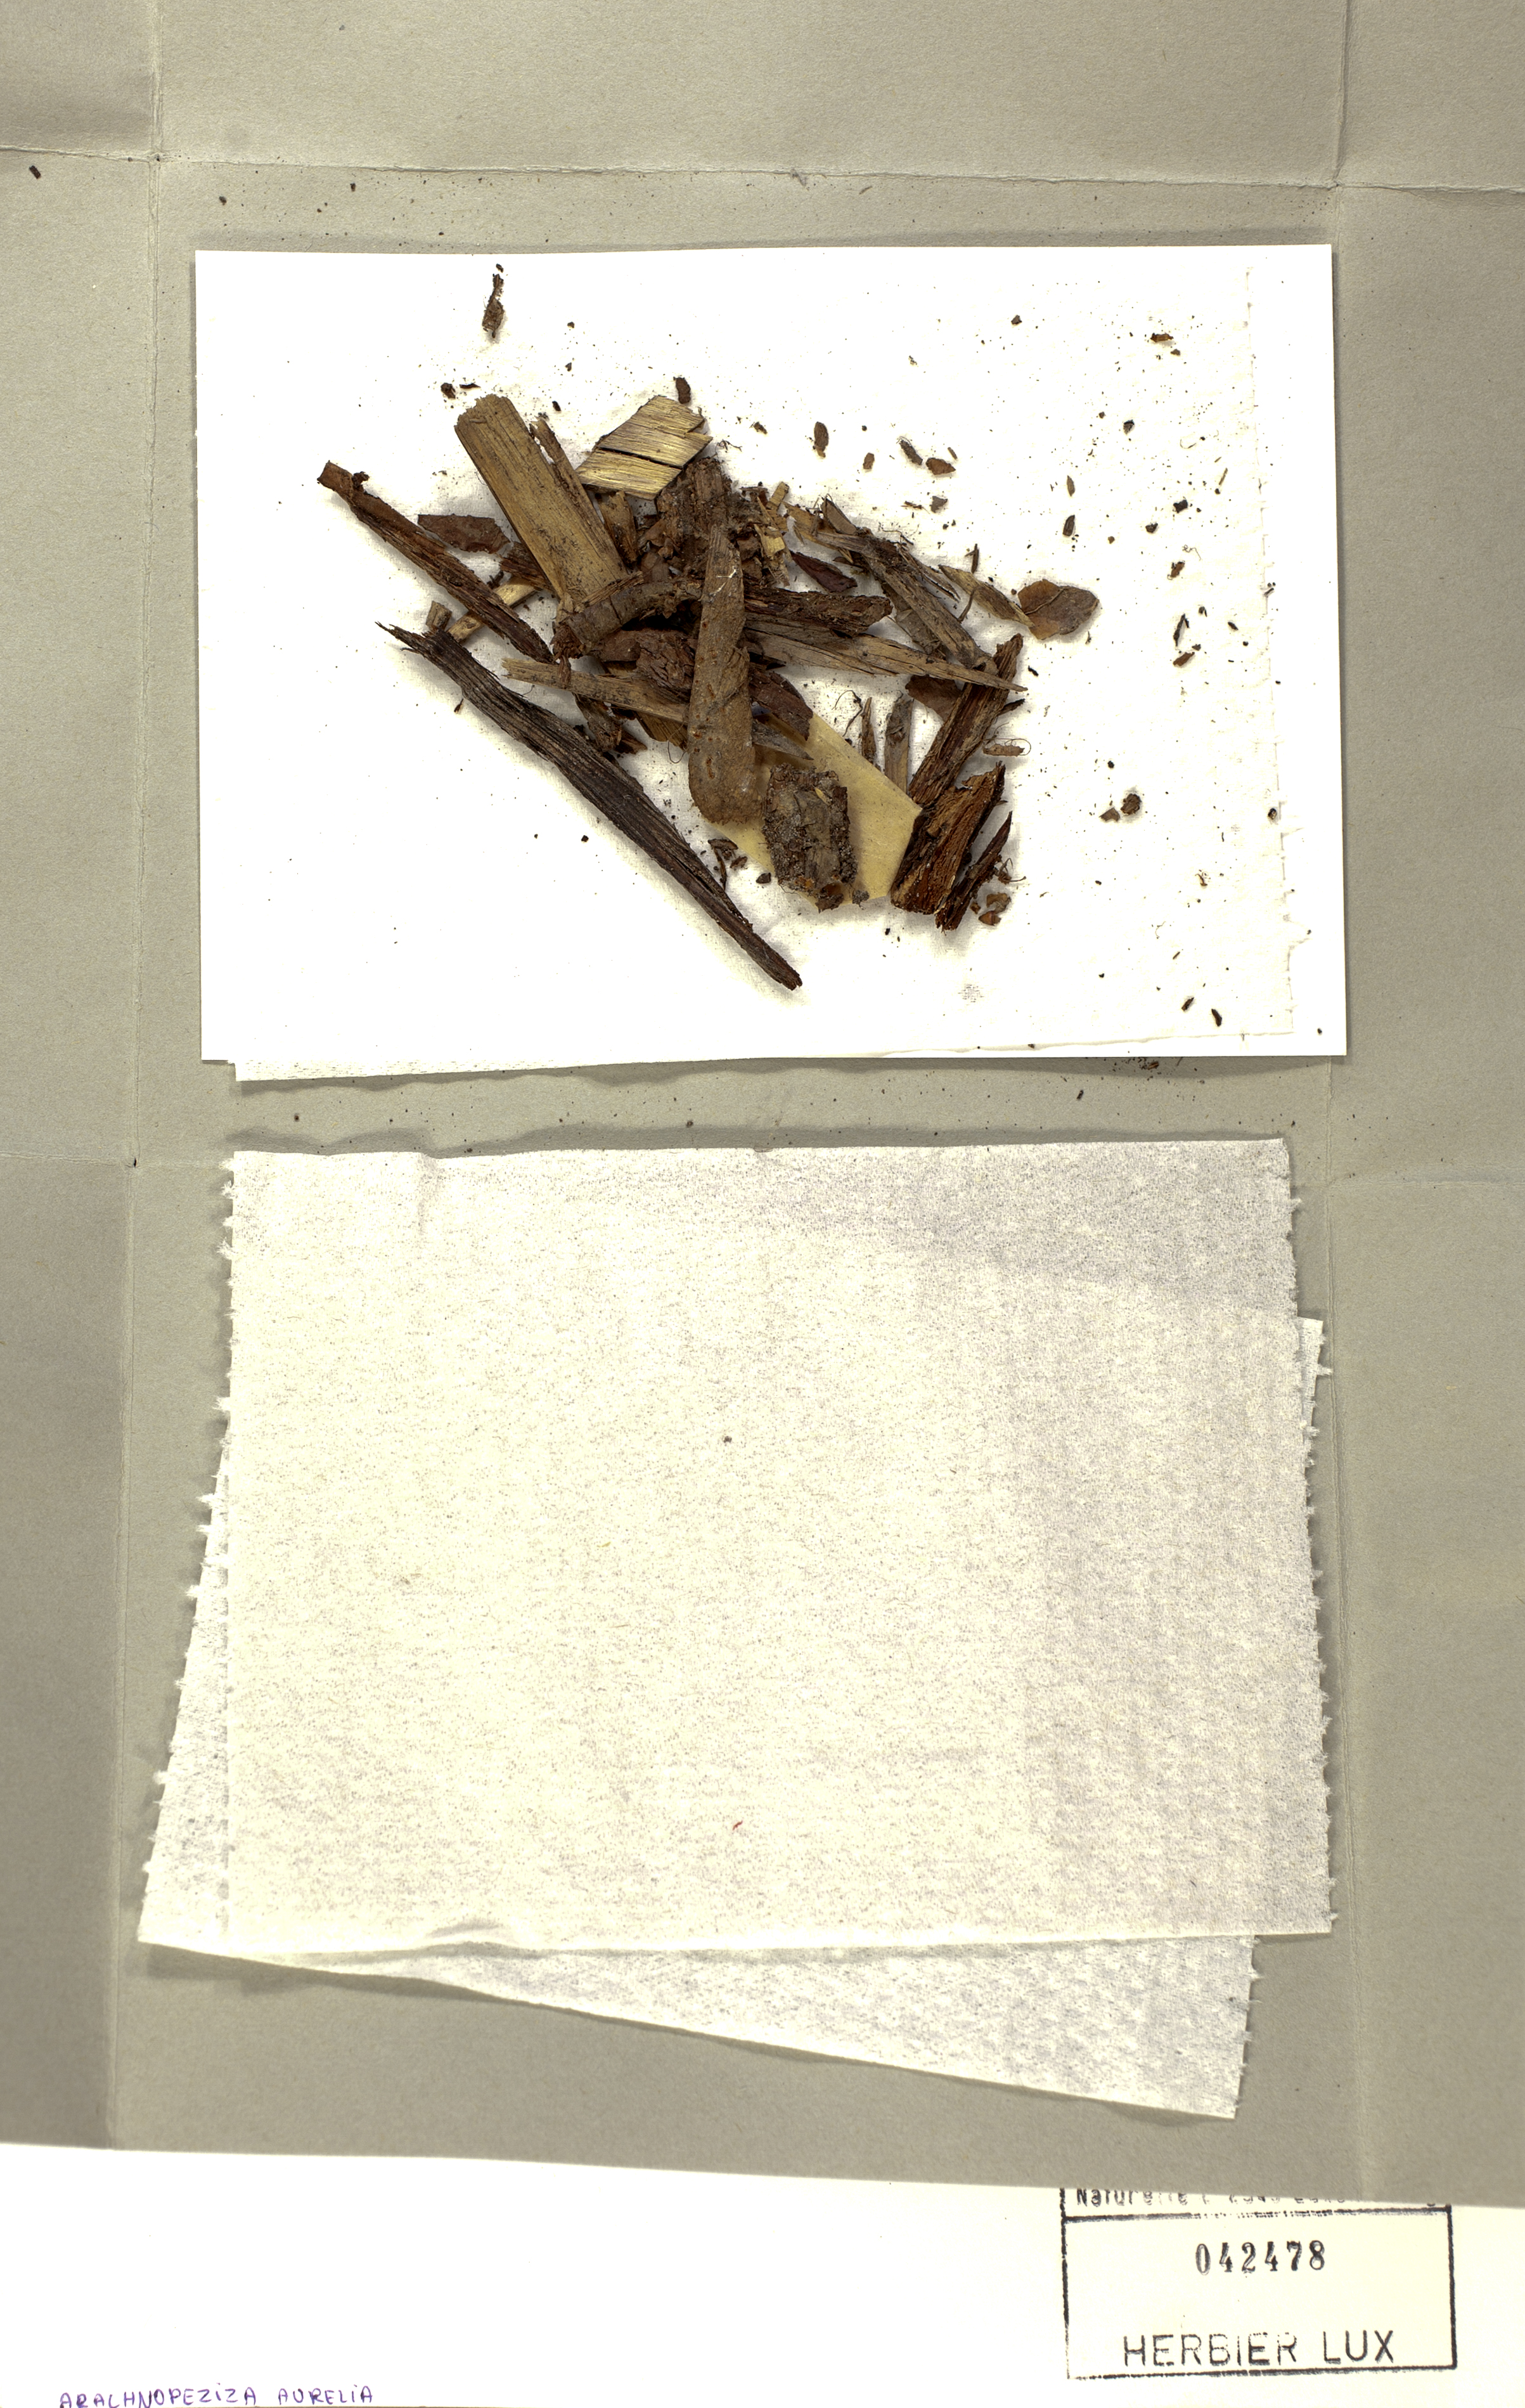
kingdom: Fungi
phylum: Ascomycota
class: Leotiomycetes
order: Helotiales
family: Arachnopezizaceae
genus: Arachnopeziza
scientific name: Arachnopeziza aurelia
